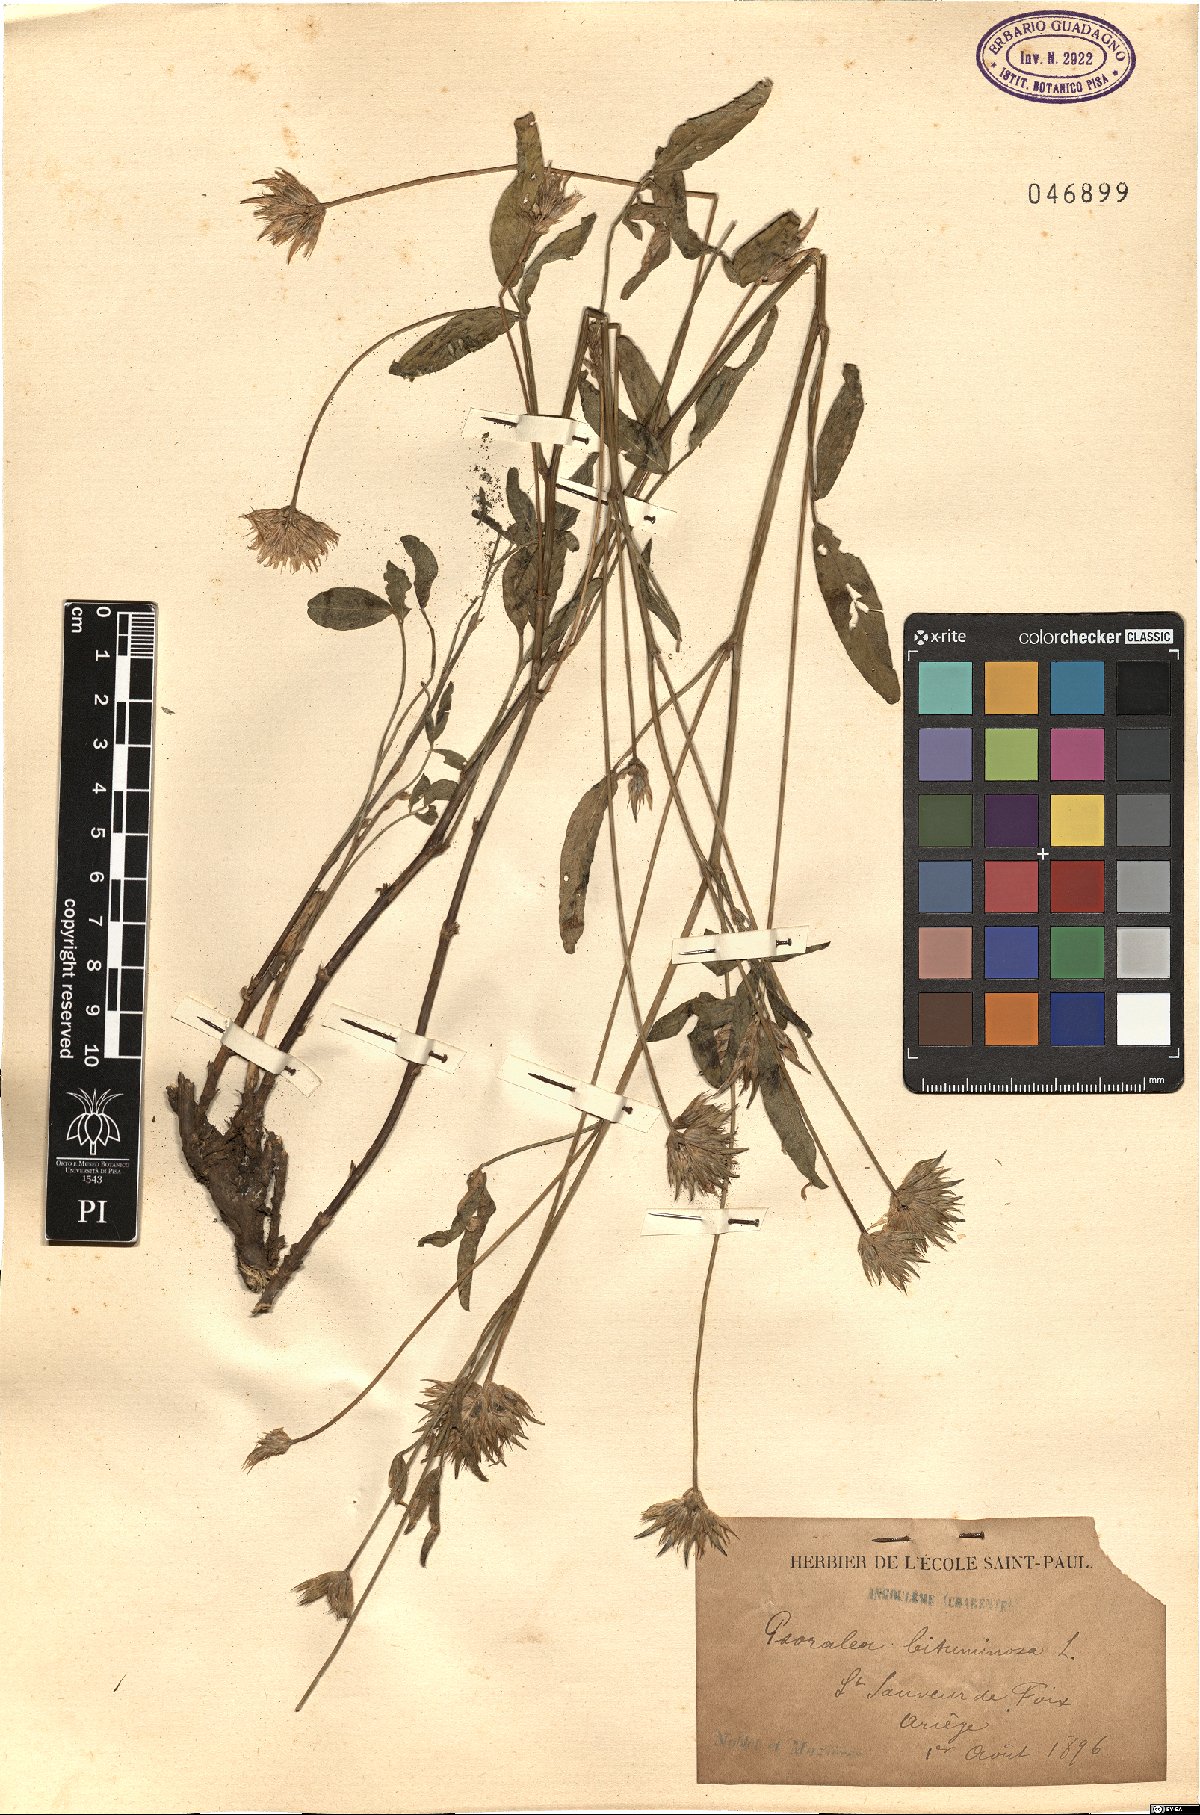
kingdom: Plantae
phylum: Tracheophyta
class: Magnoliopsida
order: Fabales
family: Fabaceae
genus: Bituminaria
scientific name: Bituminaria bituminosa
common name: Arabian pea
